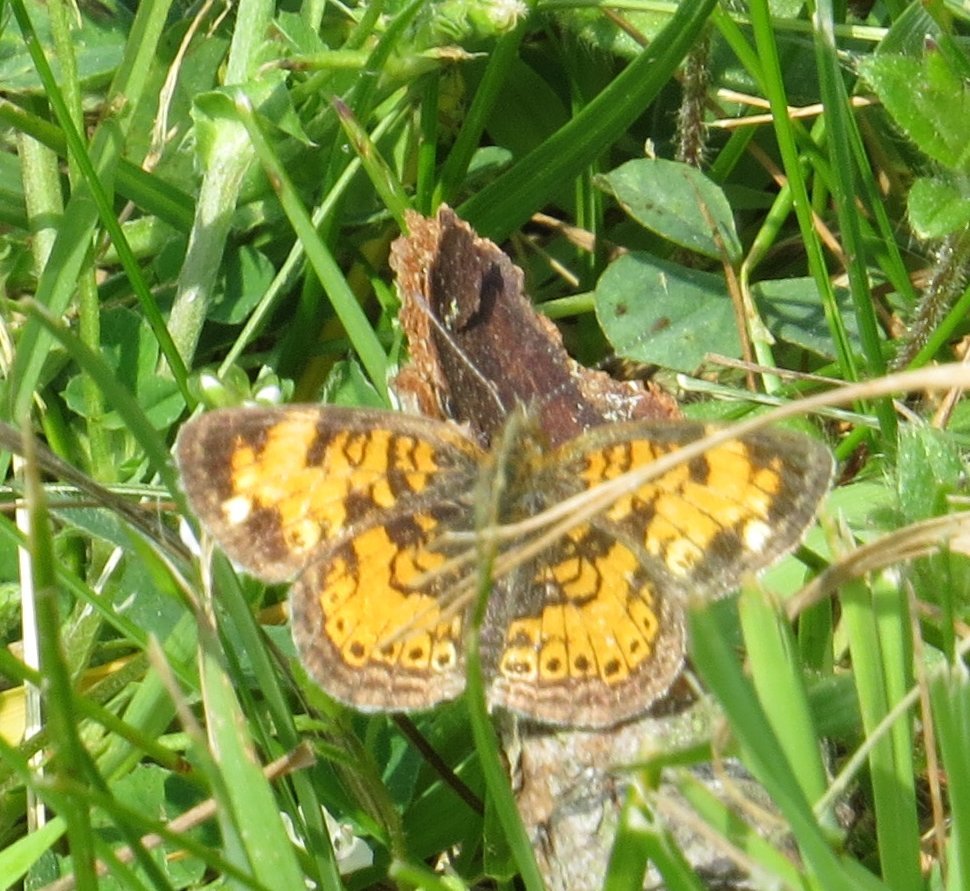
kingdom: Animalia
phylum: Arthropoda
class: Insecta
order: Lepidoptera
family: Nymphalidae
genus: Phyciodes
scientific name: Phyciodes tharos
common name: Pearl Crescent
